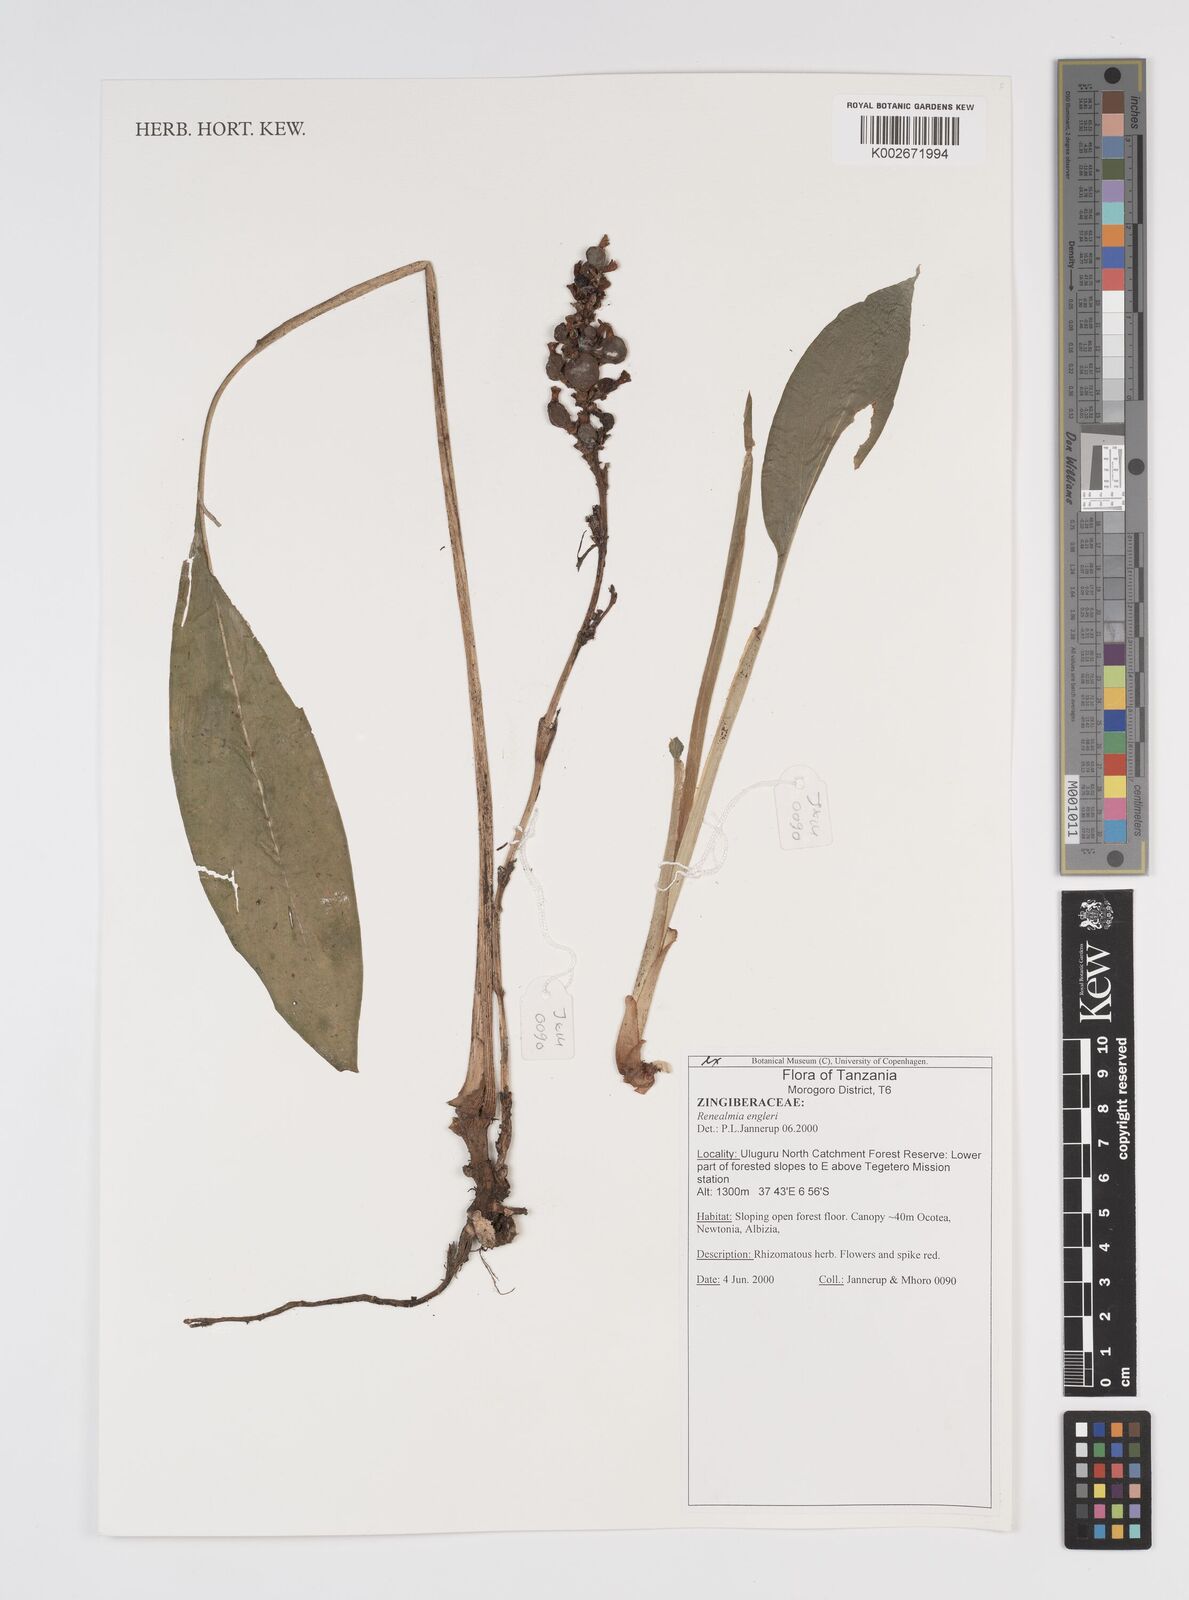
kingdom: Plantae
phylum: Tracheophyta
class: Liliopsida
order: Zingiberales
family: Zingiberaceae
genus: Renealmia
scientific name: Renealmia engleri
